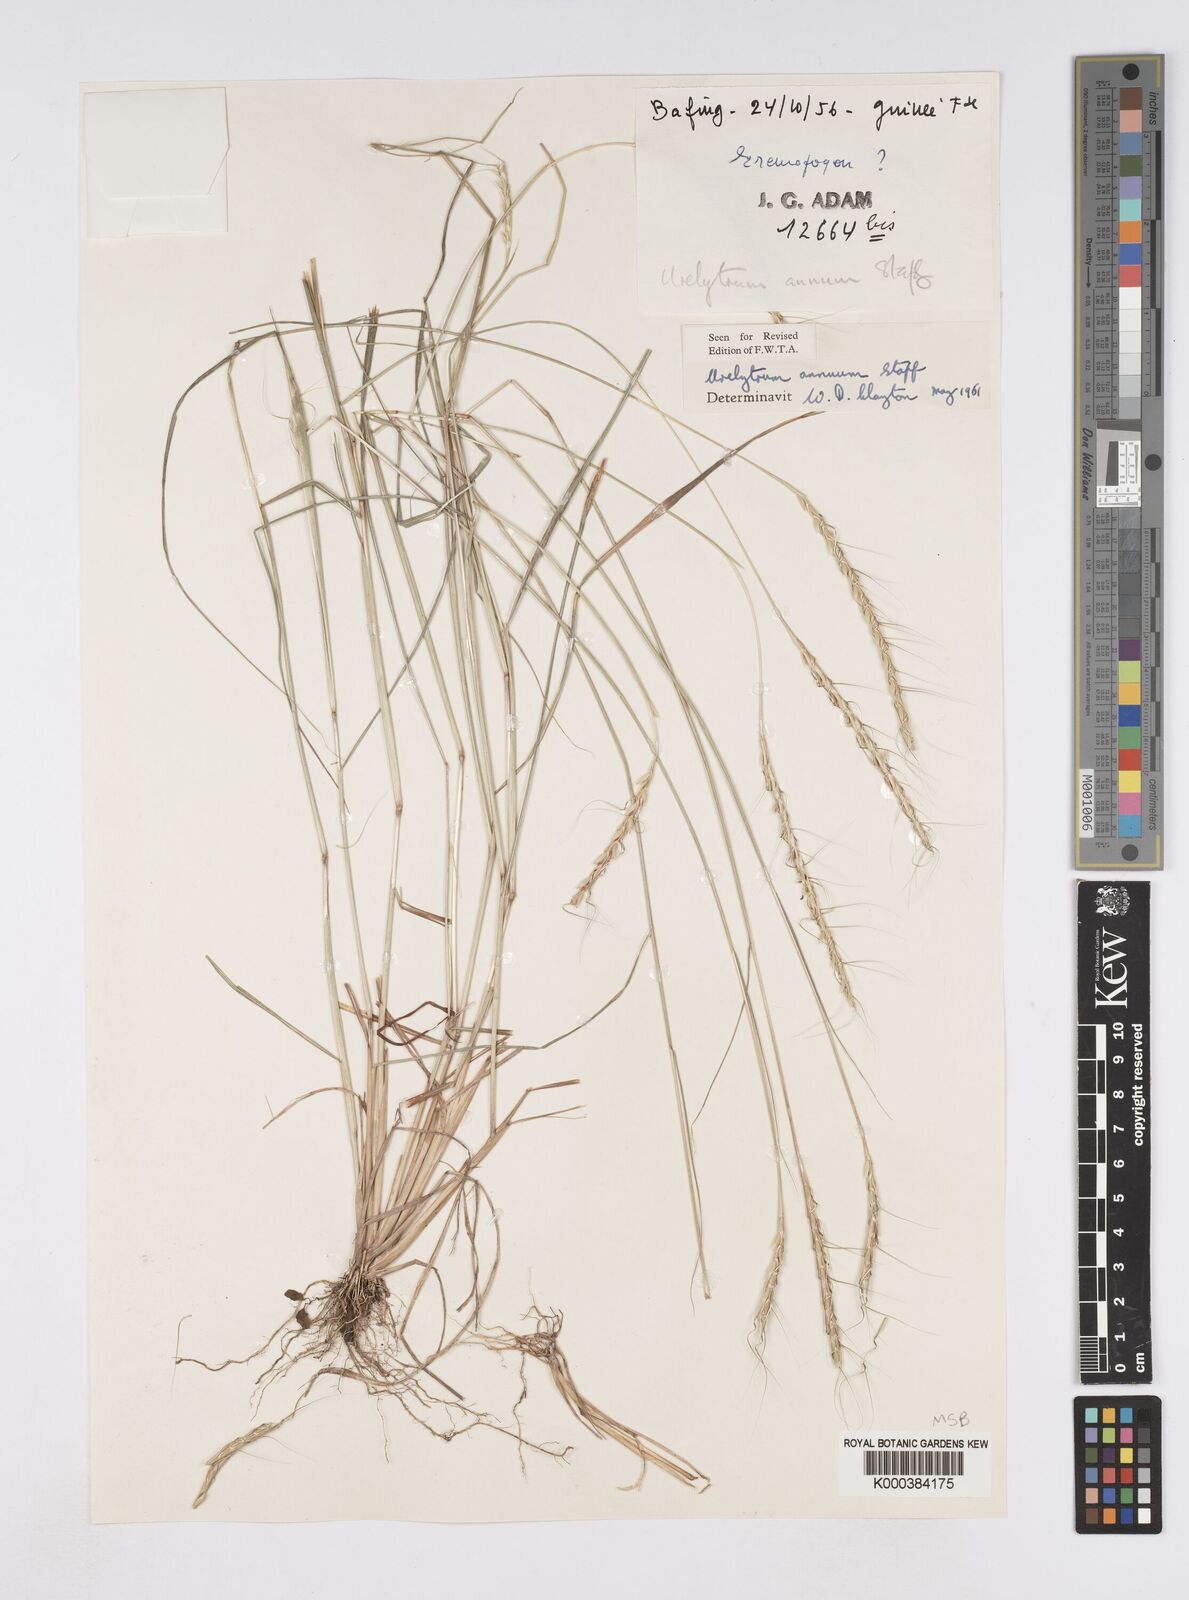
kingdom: Plantae
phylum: Tracheophyta
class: Liliopsida
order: Poales
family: Poaceae
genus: Urelytrum
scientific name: Urelytrum annuum
